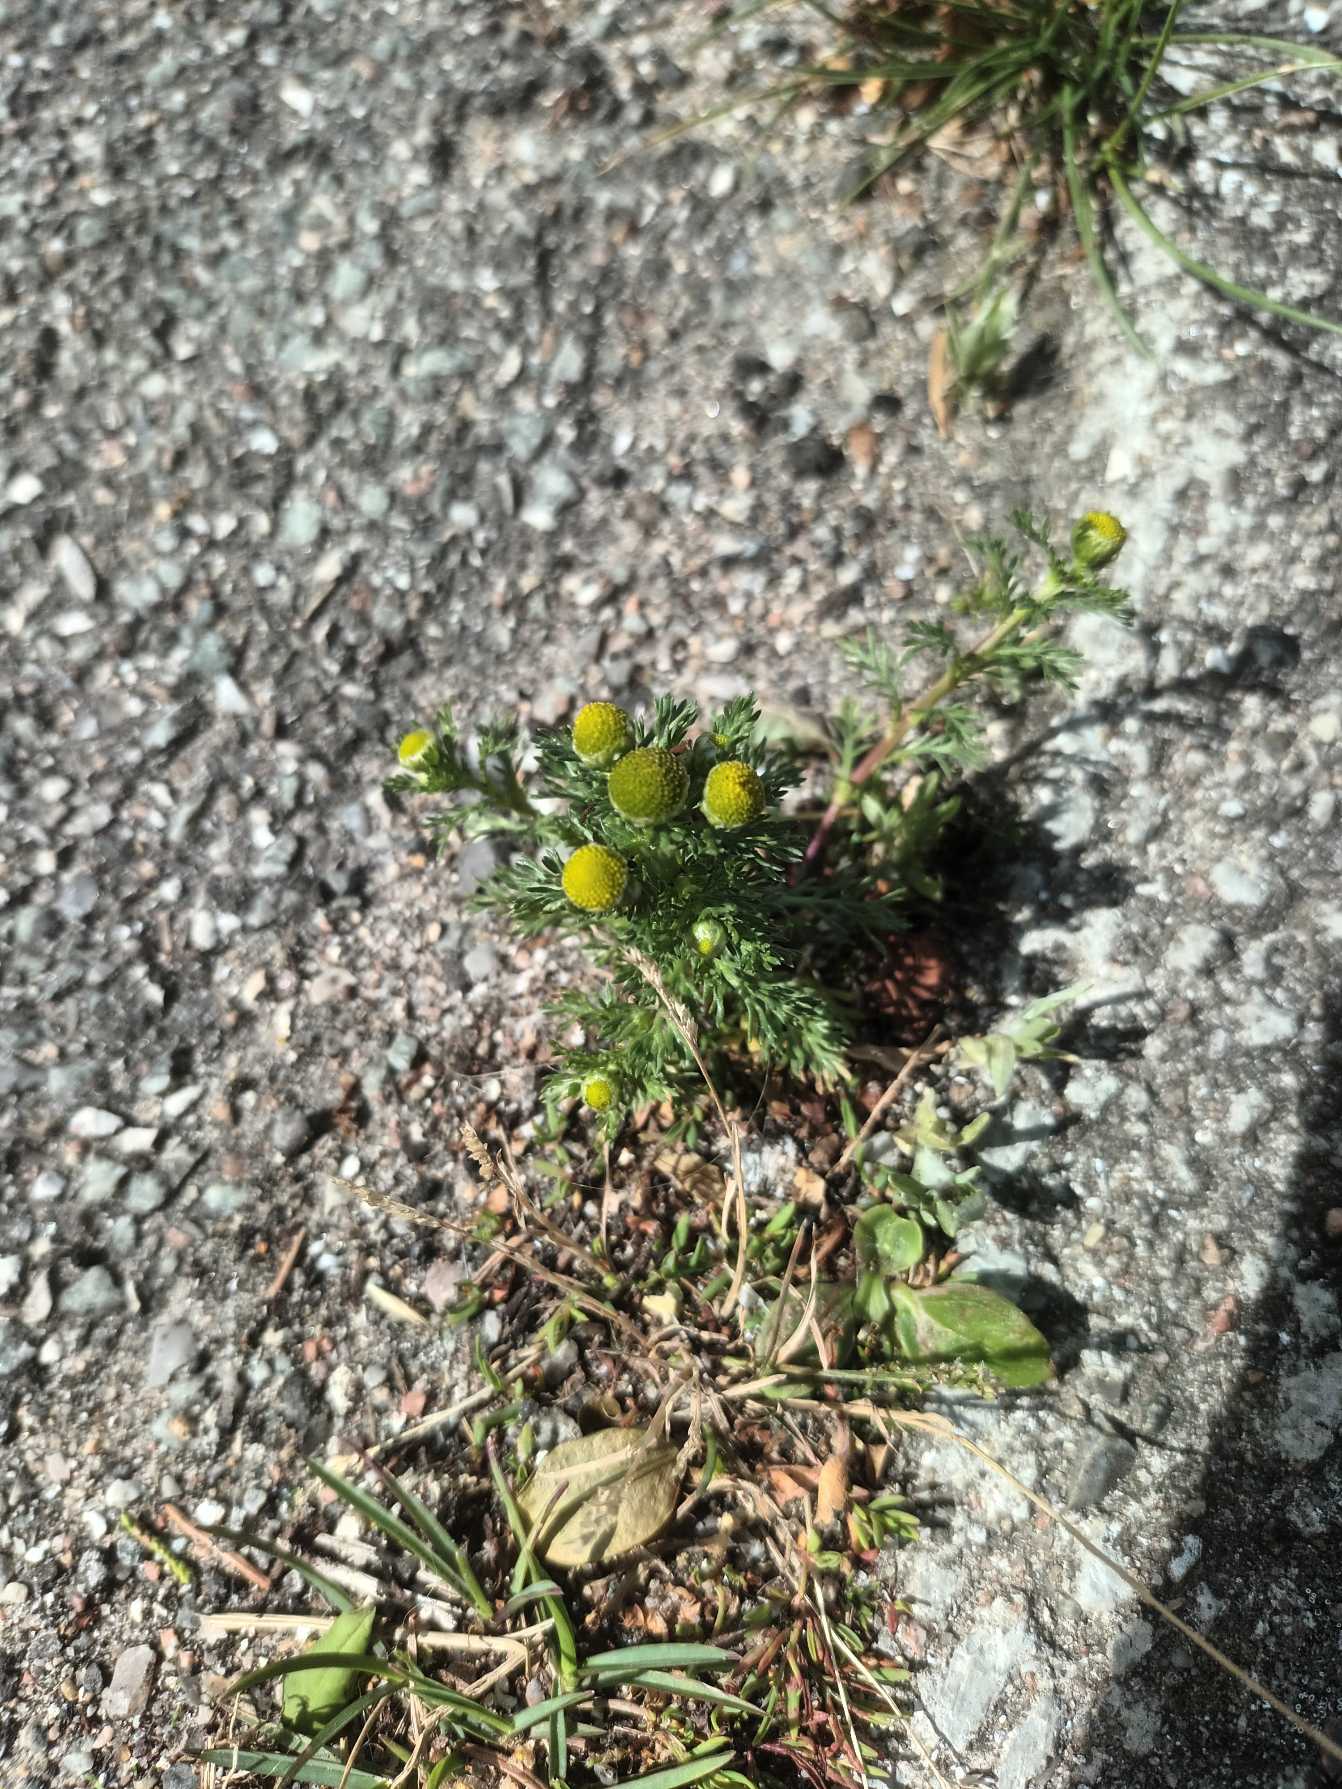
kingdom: Plantae
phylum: Tracheophyta
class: Magnoliopsida
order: Asterales
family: Asteraceae
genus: Matricaria
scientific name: Matricaria discoidea
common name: Skive-kamille
